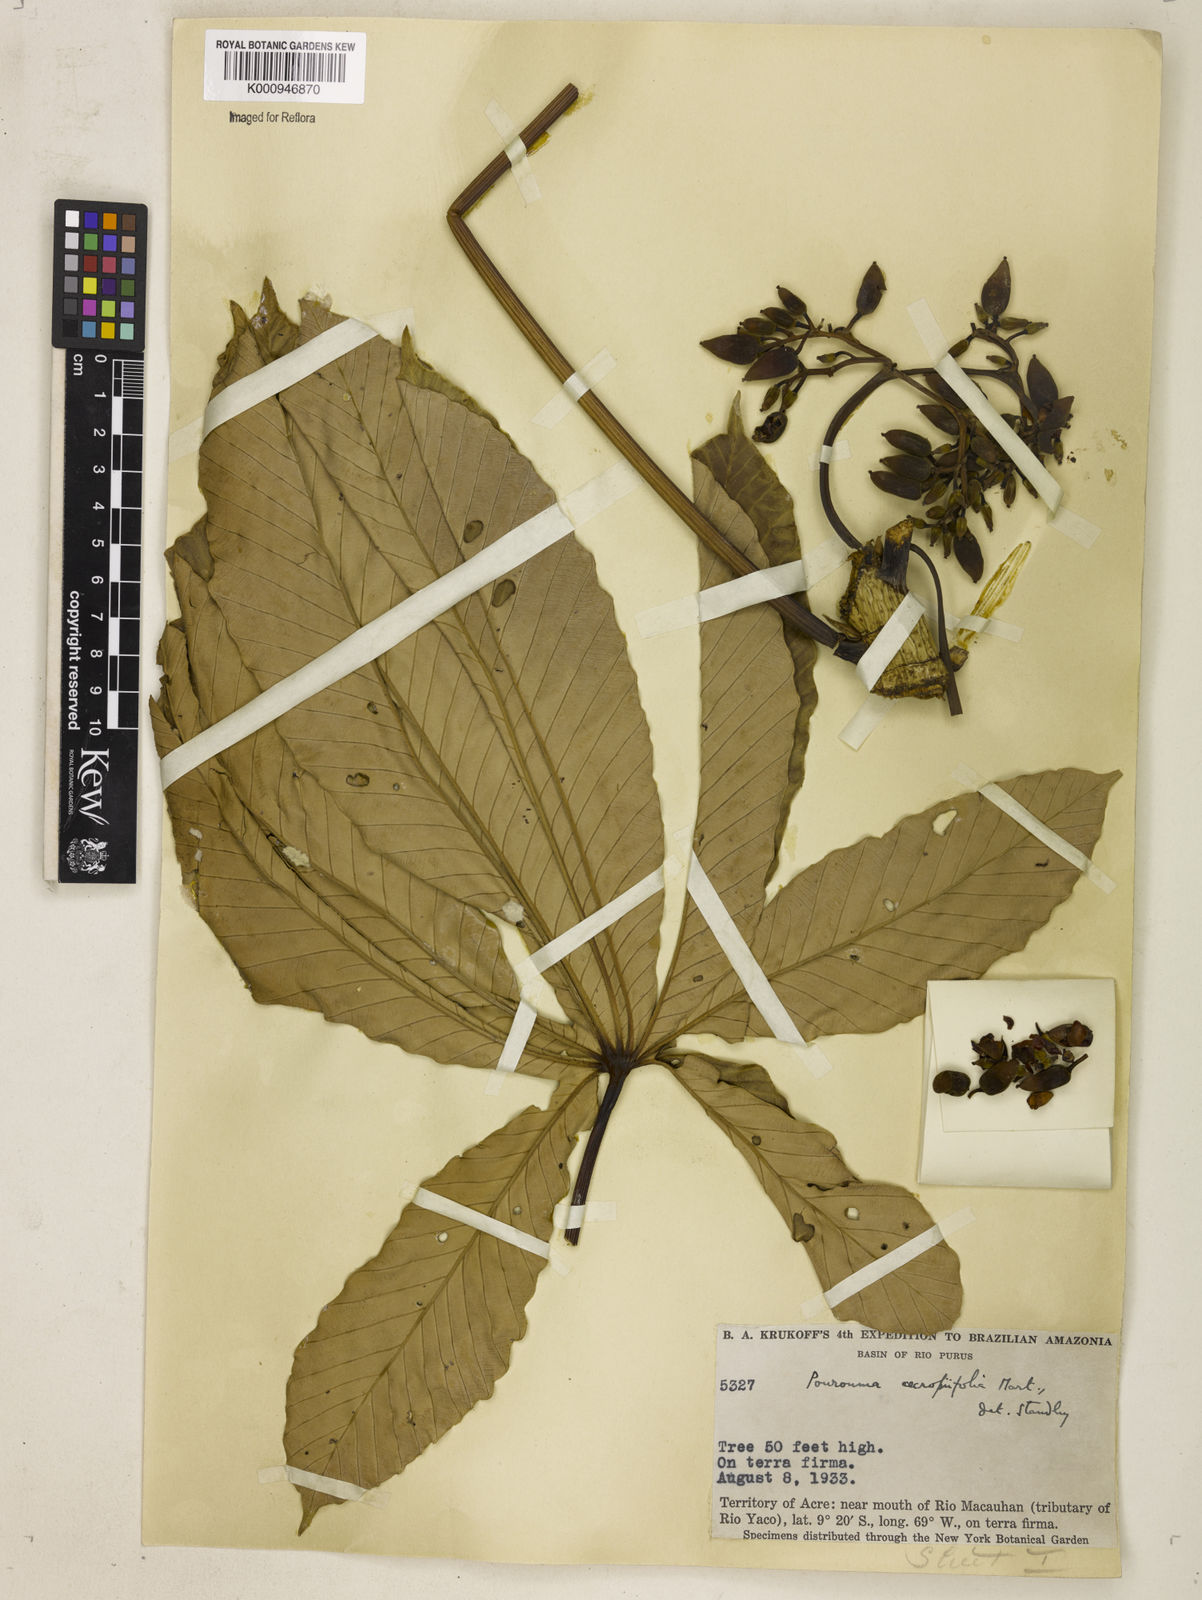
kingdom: Plantae
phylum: Tracheophyta
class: Magnoliopsida
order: Rosales
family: Urticaceae
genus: Pourouma
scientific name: Pourouma cecropiifolia
